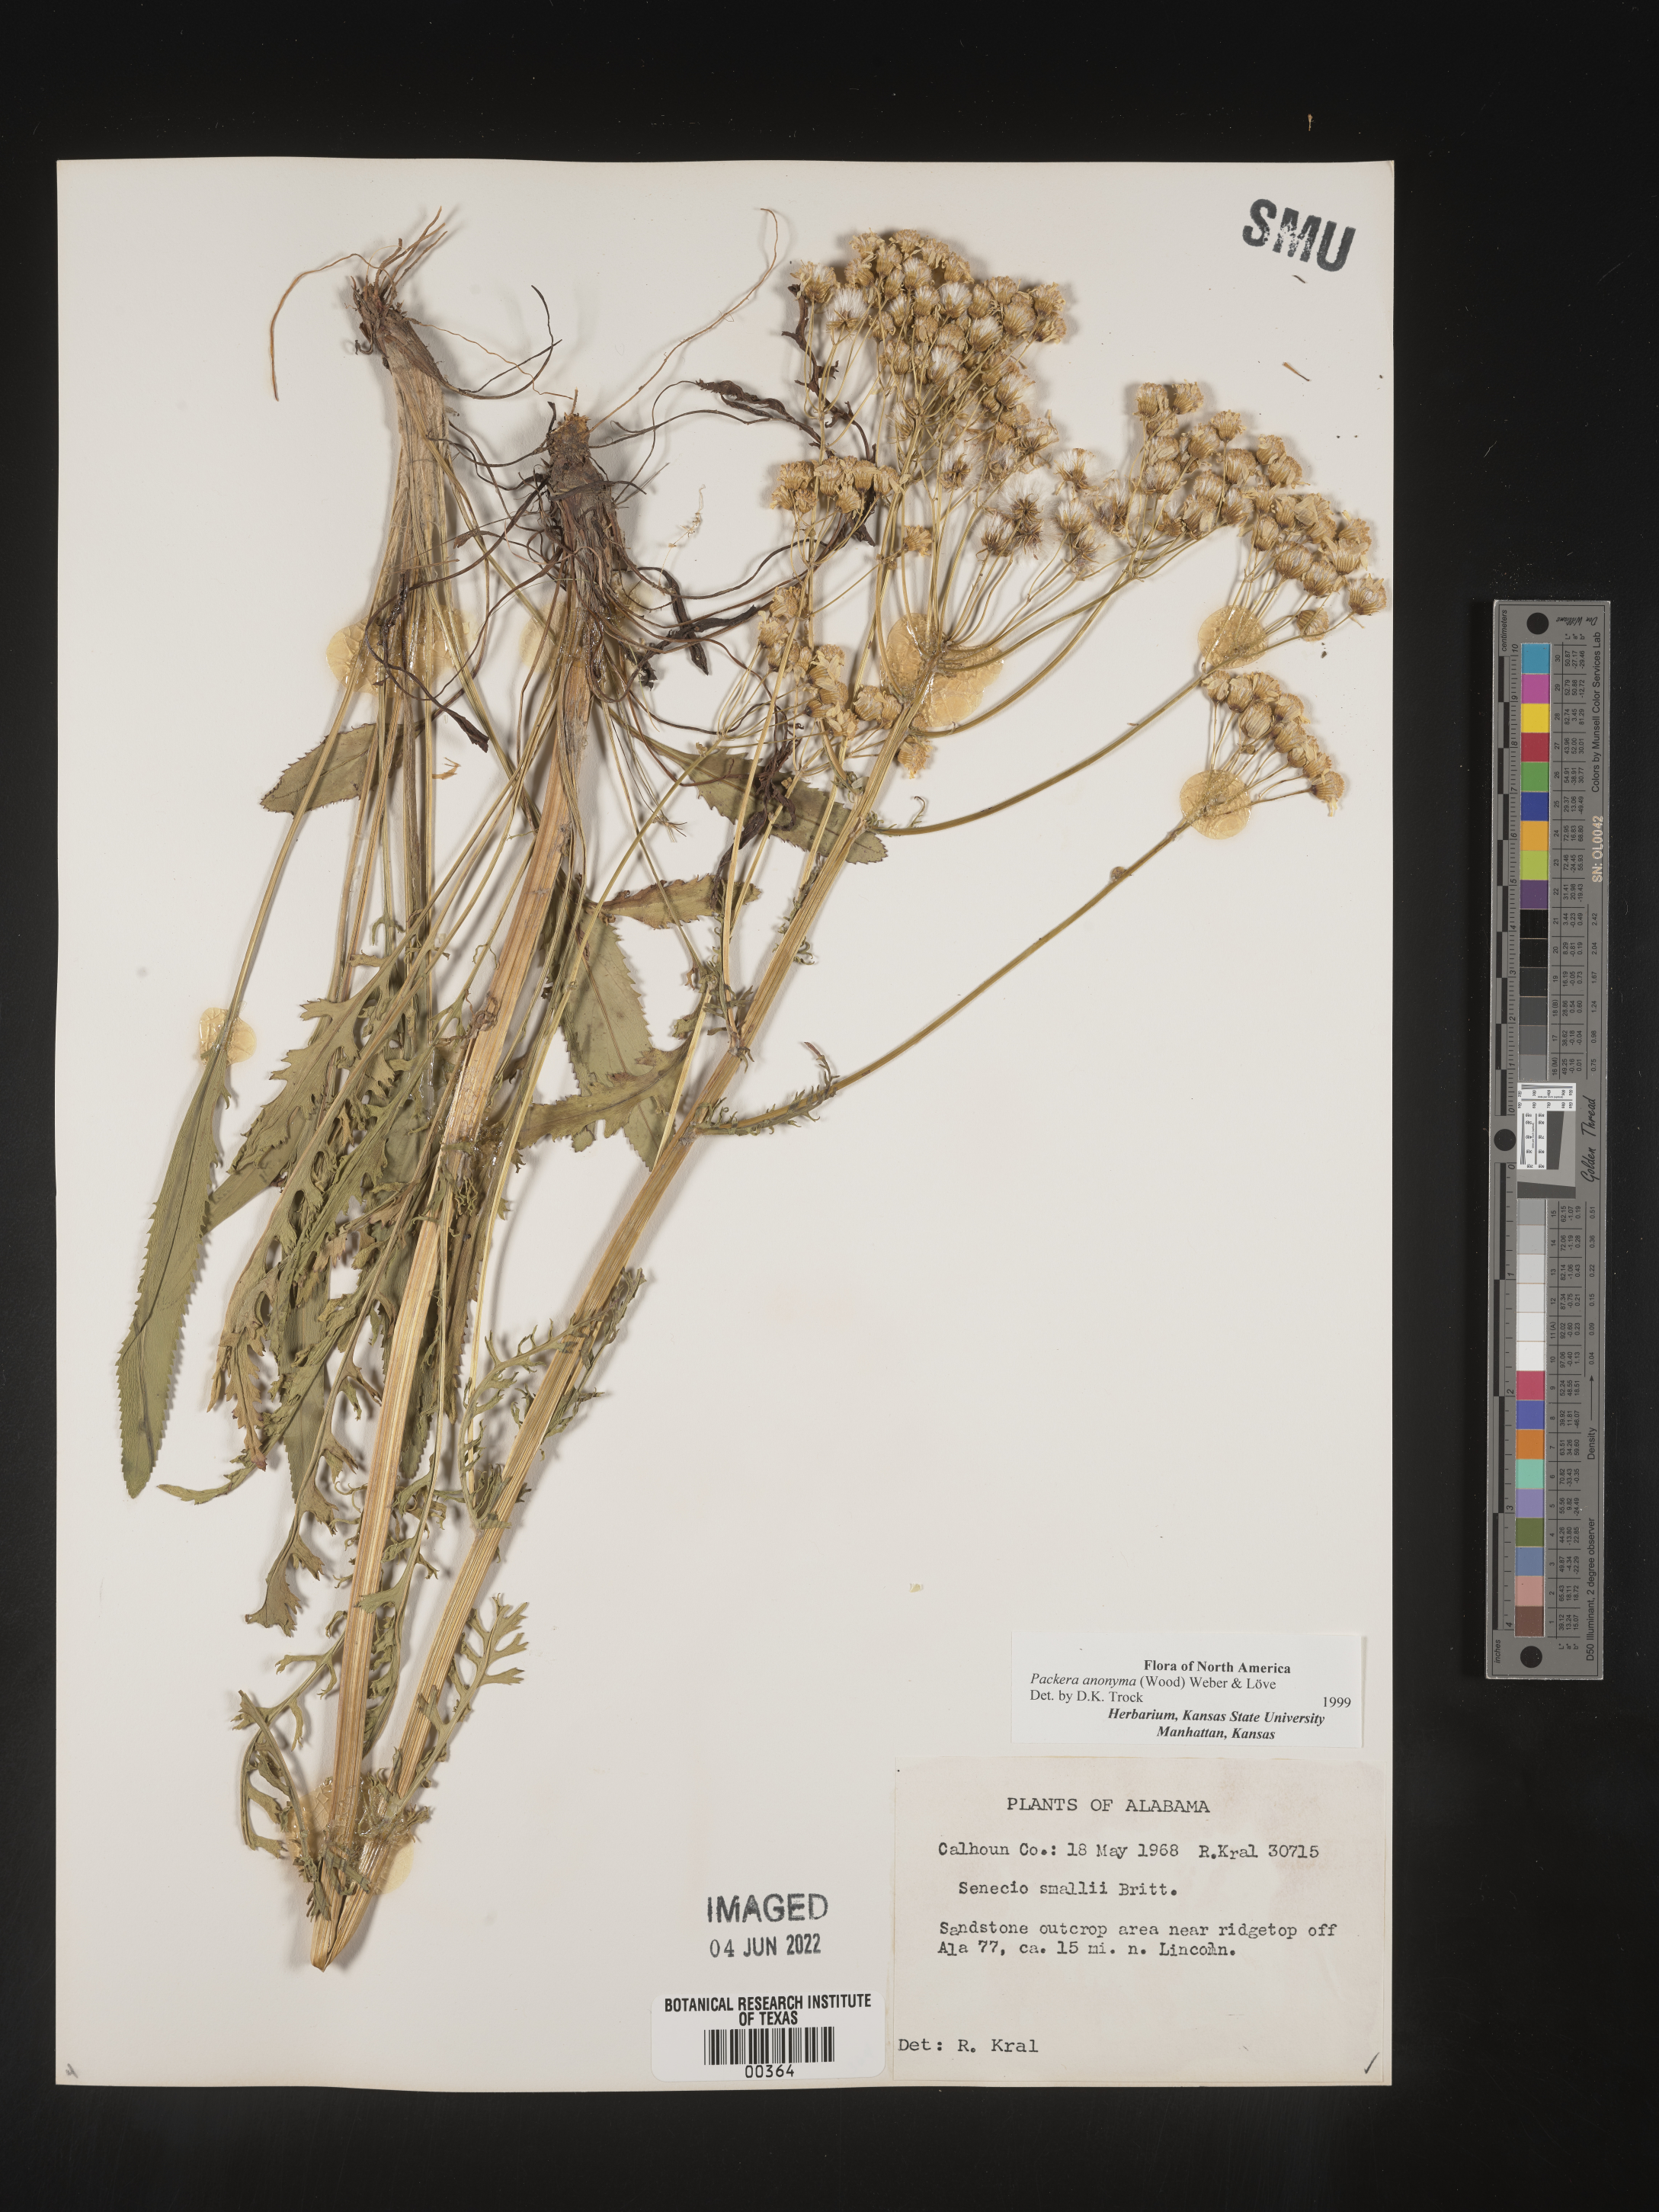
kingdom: Plantae
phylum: Tracheophyta
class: Magnoliopsida
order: Asterales
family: Asteraceae
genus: Packera
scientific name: Packera anonyma
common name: Small ragwort
